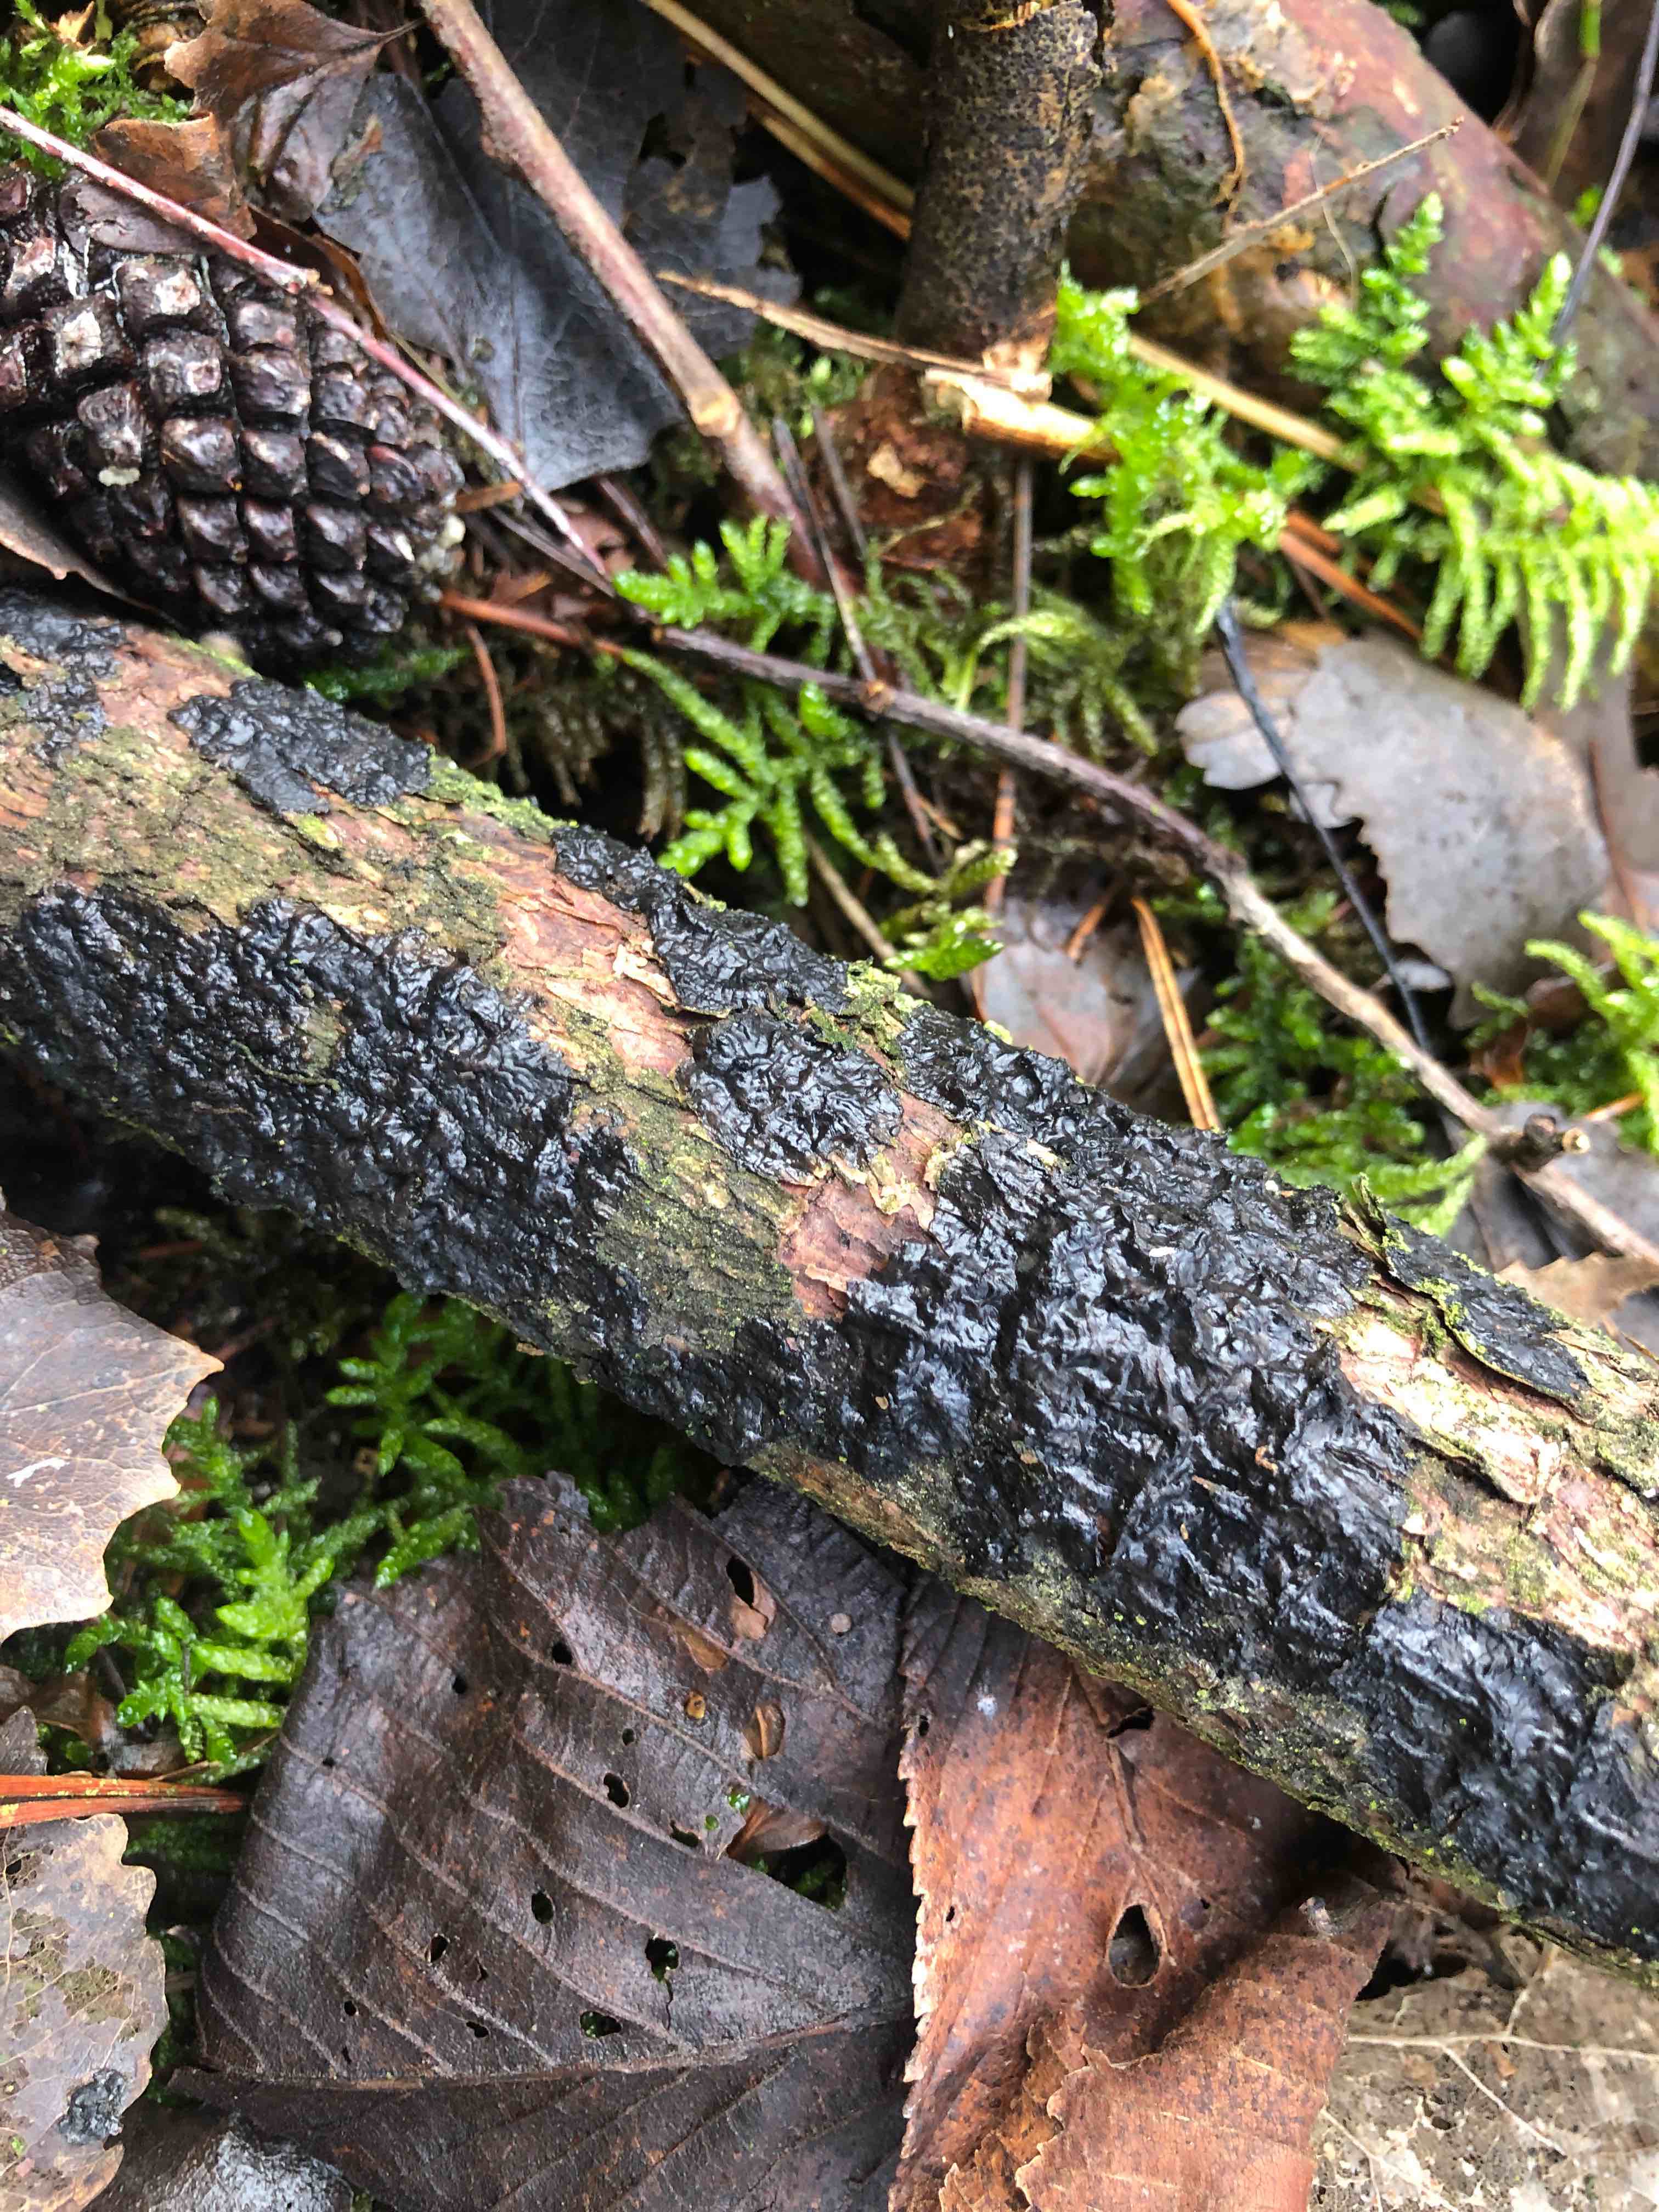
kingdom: Fungi
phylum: Basidiomycota
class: Agaricomycetes
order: Auriculariales
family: Auriculariaceae
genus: Exidia
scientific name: Exidia pithya
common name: gran-bævretop
